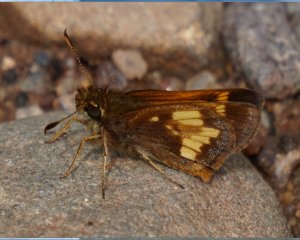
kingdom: Animalia
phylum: Arthropoda
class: Insecta
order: Lepidoptera
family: Hesperiidae
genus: Lon
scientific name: Lon hobomok
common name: Hobomok Skipper
